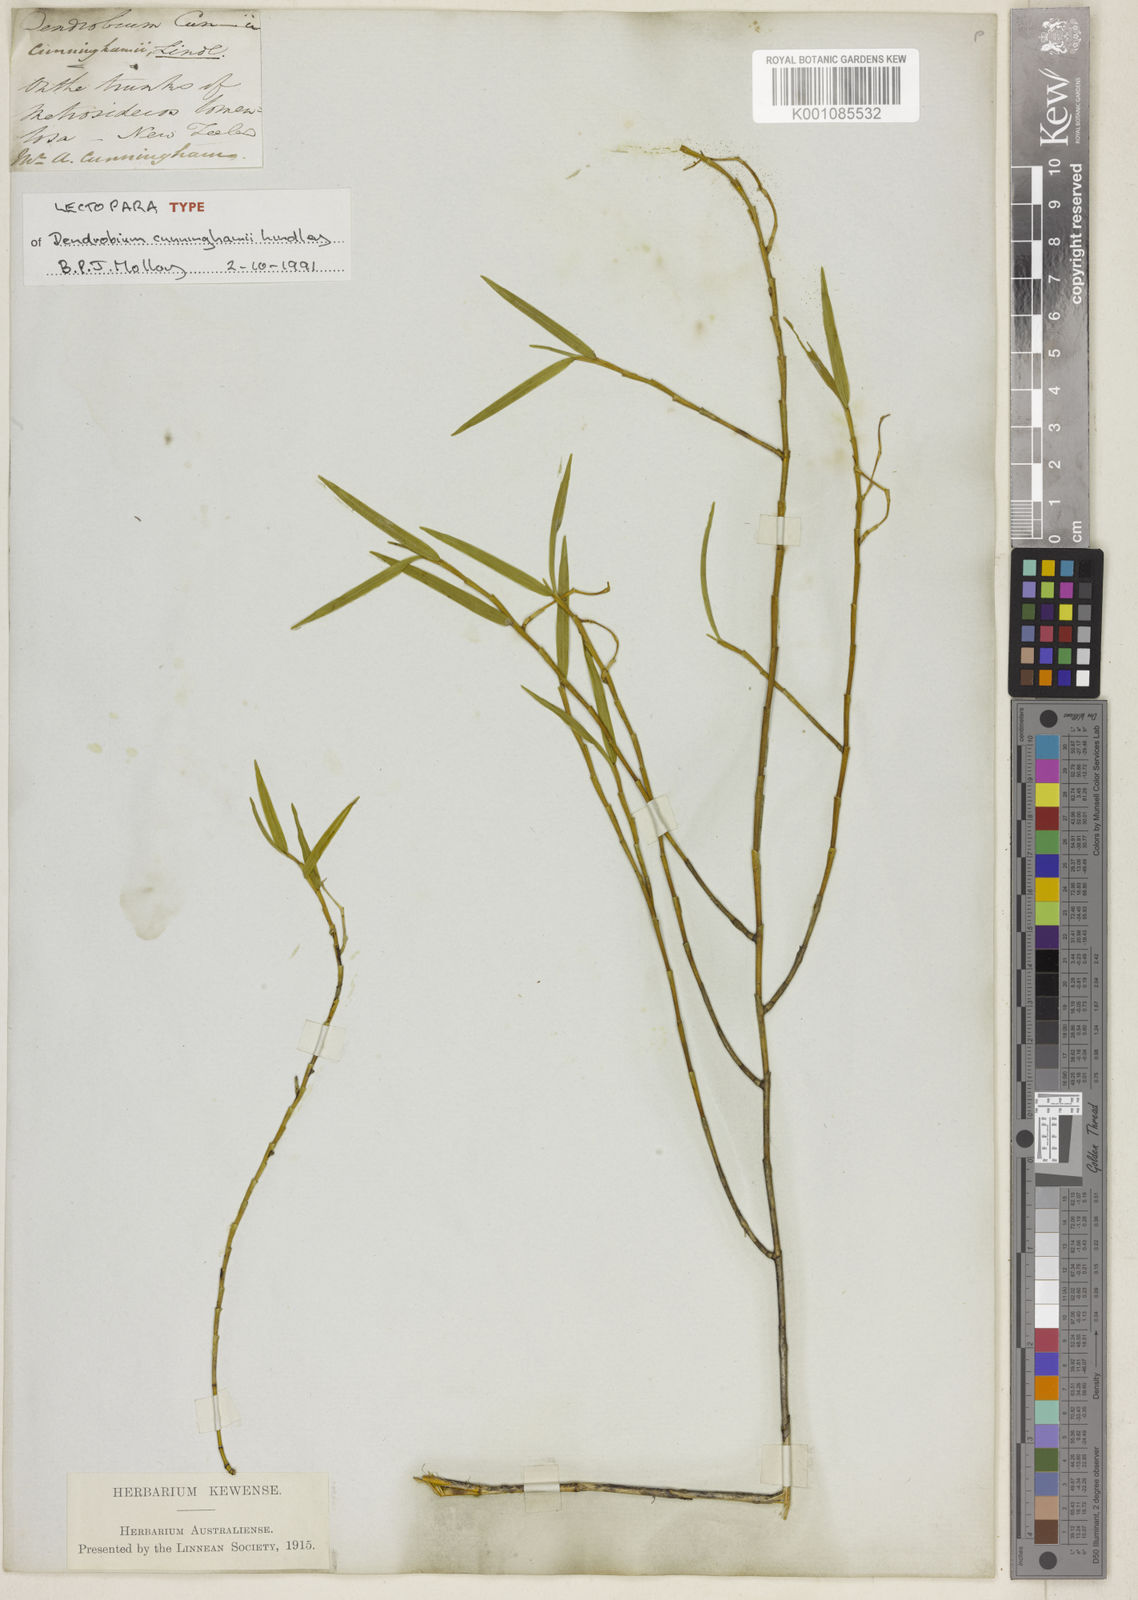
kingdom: Plantae
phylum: Tracheophyta
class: Liliopsida
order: Asparagales
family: Orchidaceae
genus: Dendrobium
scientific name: Dendrobium cunninghamii
